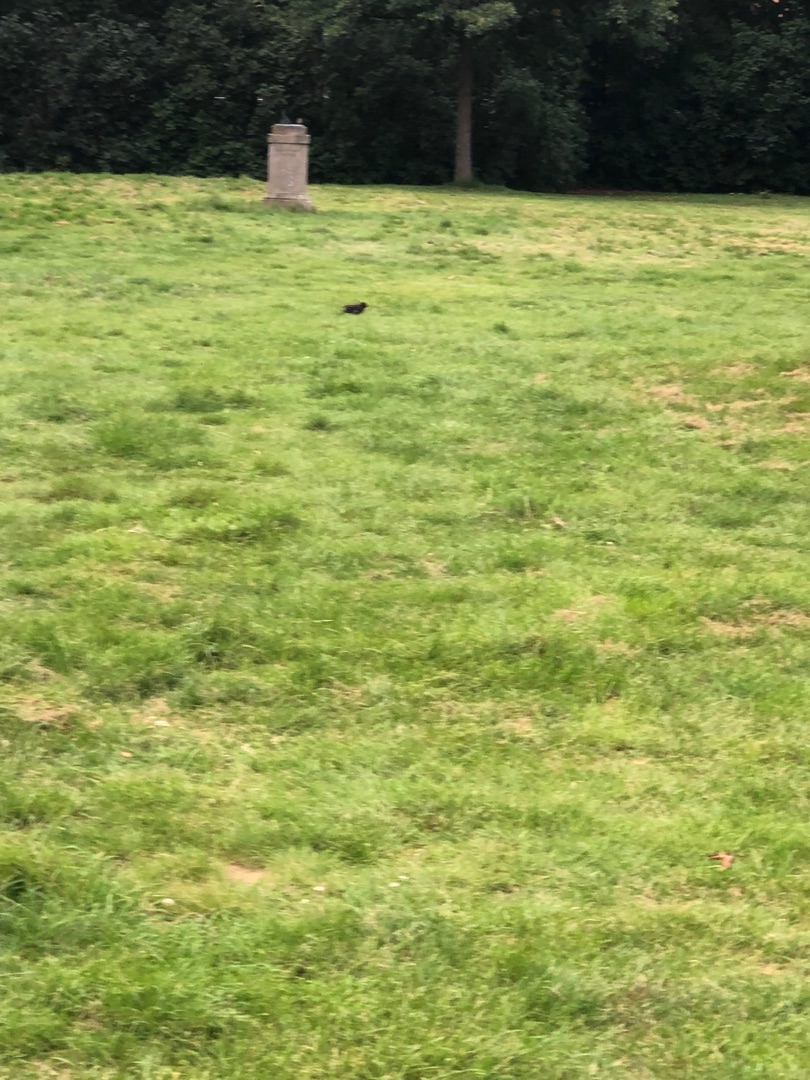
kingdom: Animalia
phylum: Chordata
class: Aves
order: Passeriformes
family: Turdidae
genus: Turdus
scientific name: Turdus merula
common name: Solsort
